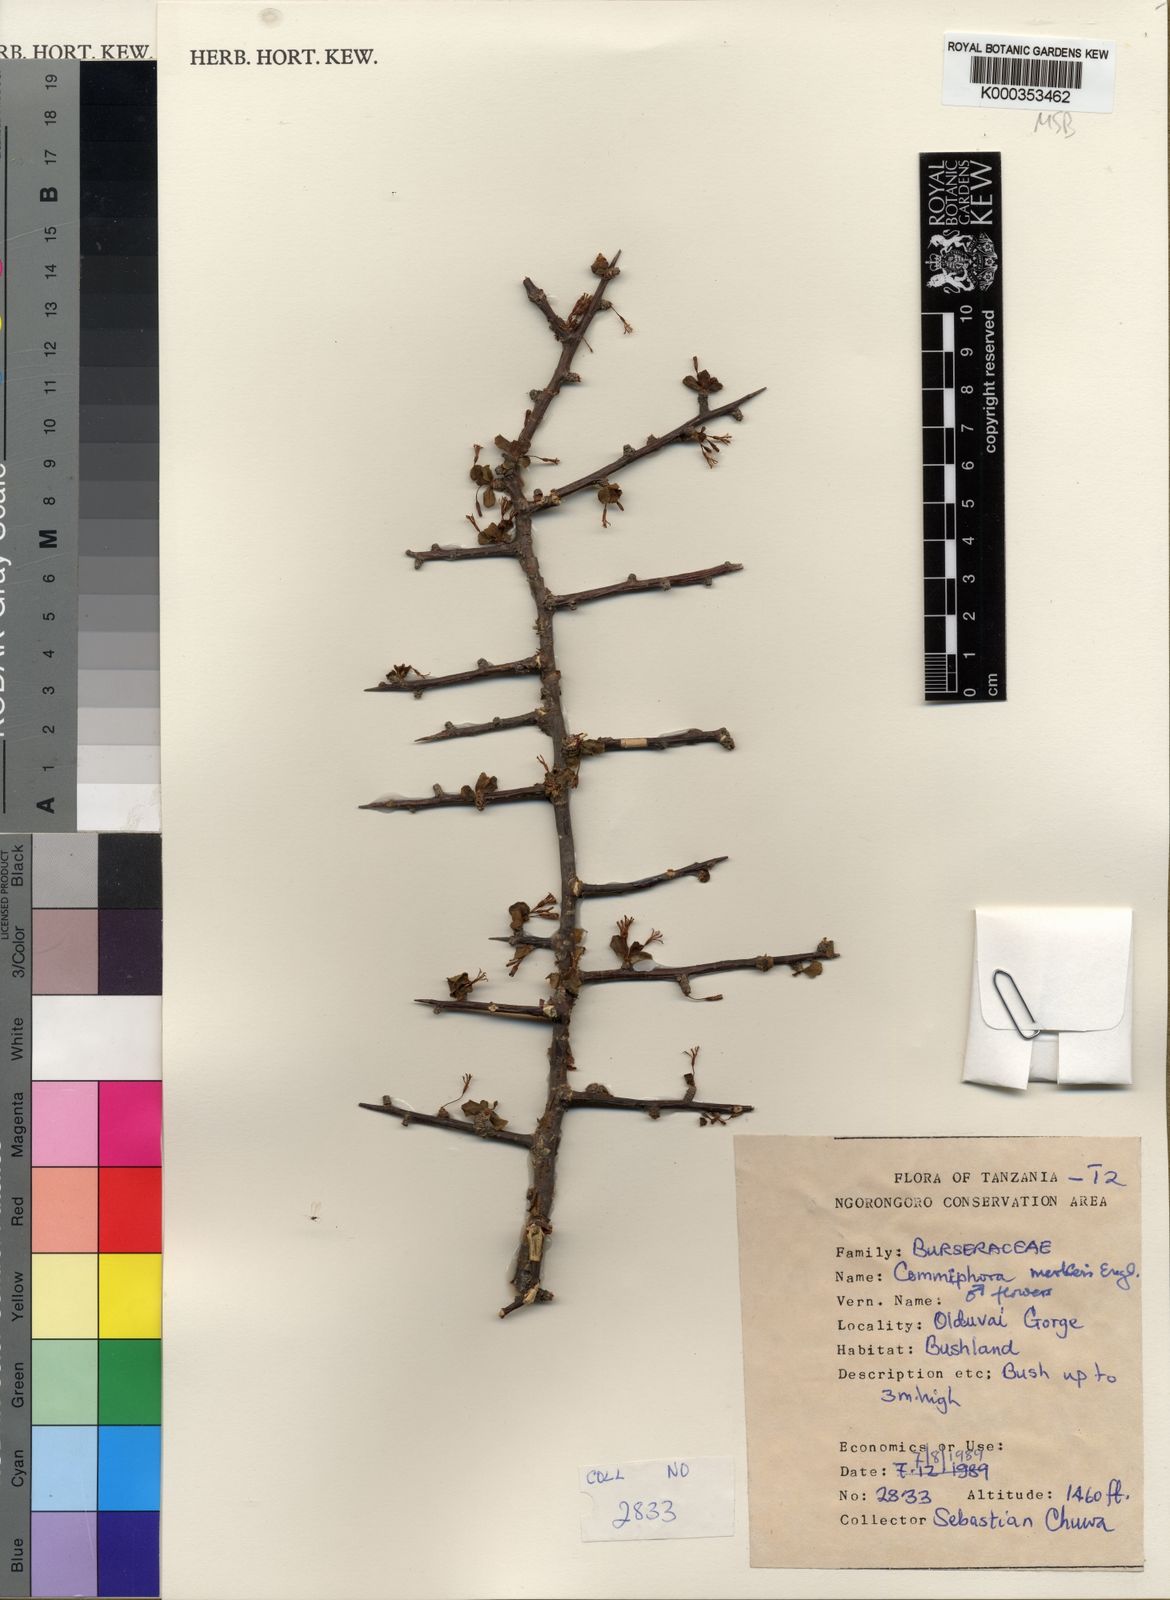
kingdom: Plantae
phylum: Tracheophyta
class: Magnoliopsida
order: Sapindales
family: Burseraceae
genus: Commiphora
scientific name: Commiphora viminea
